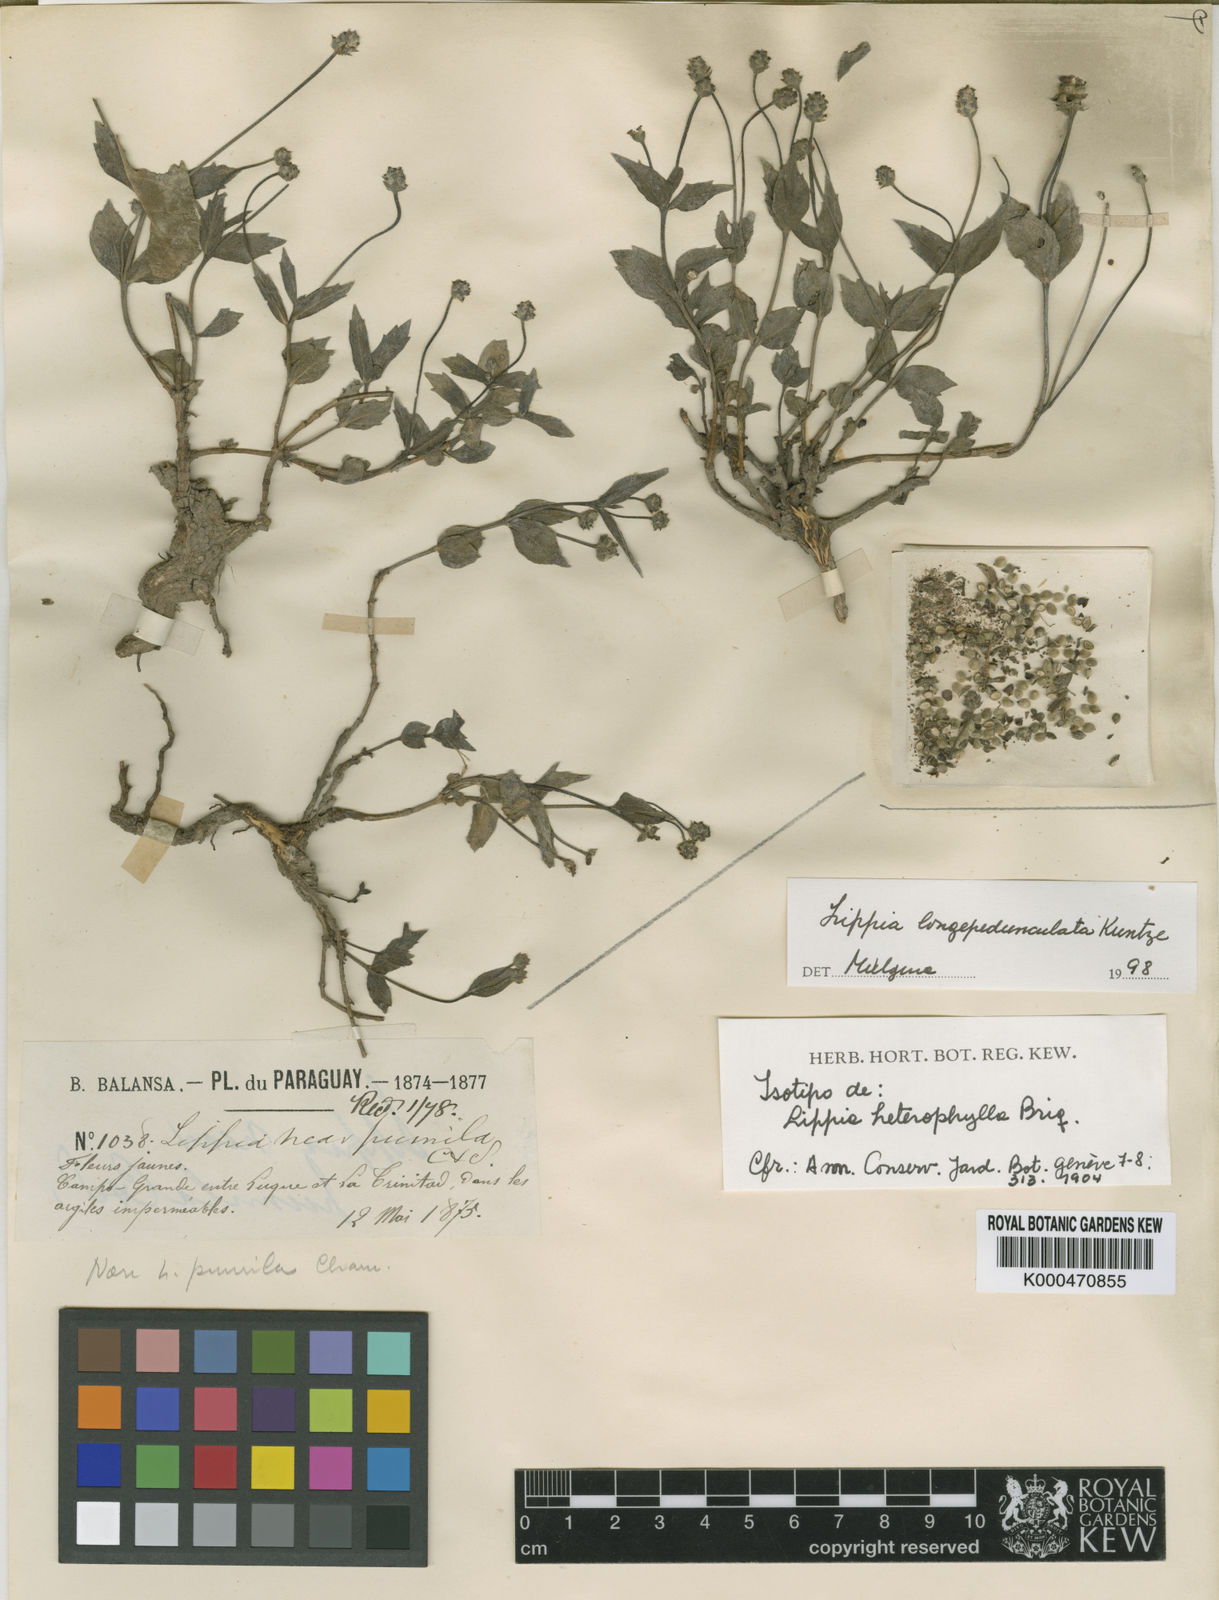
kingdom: Plantae
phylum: Tracheophyta
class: Magnoliopsida
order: Lamiales
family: Verbenaceae
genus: Lippia
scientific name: Lippia
